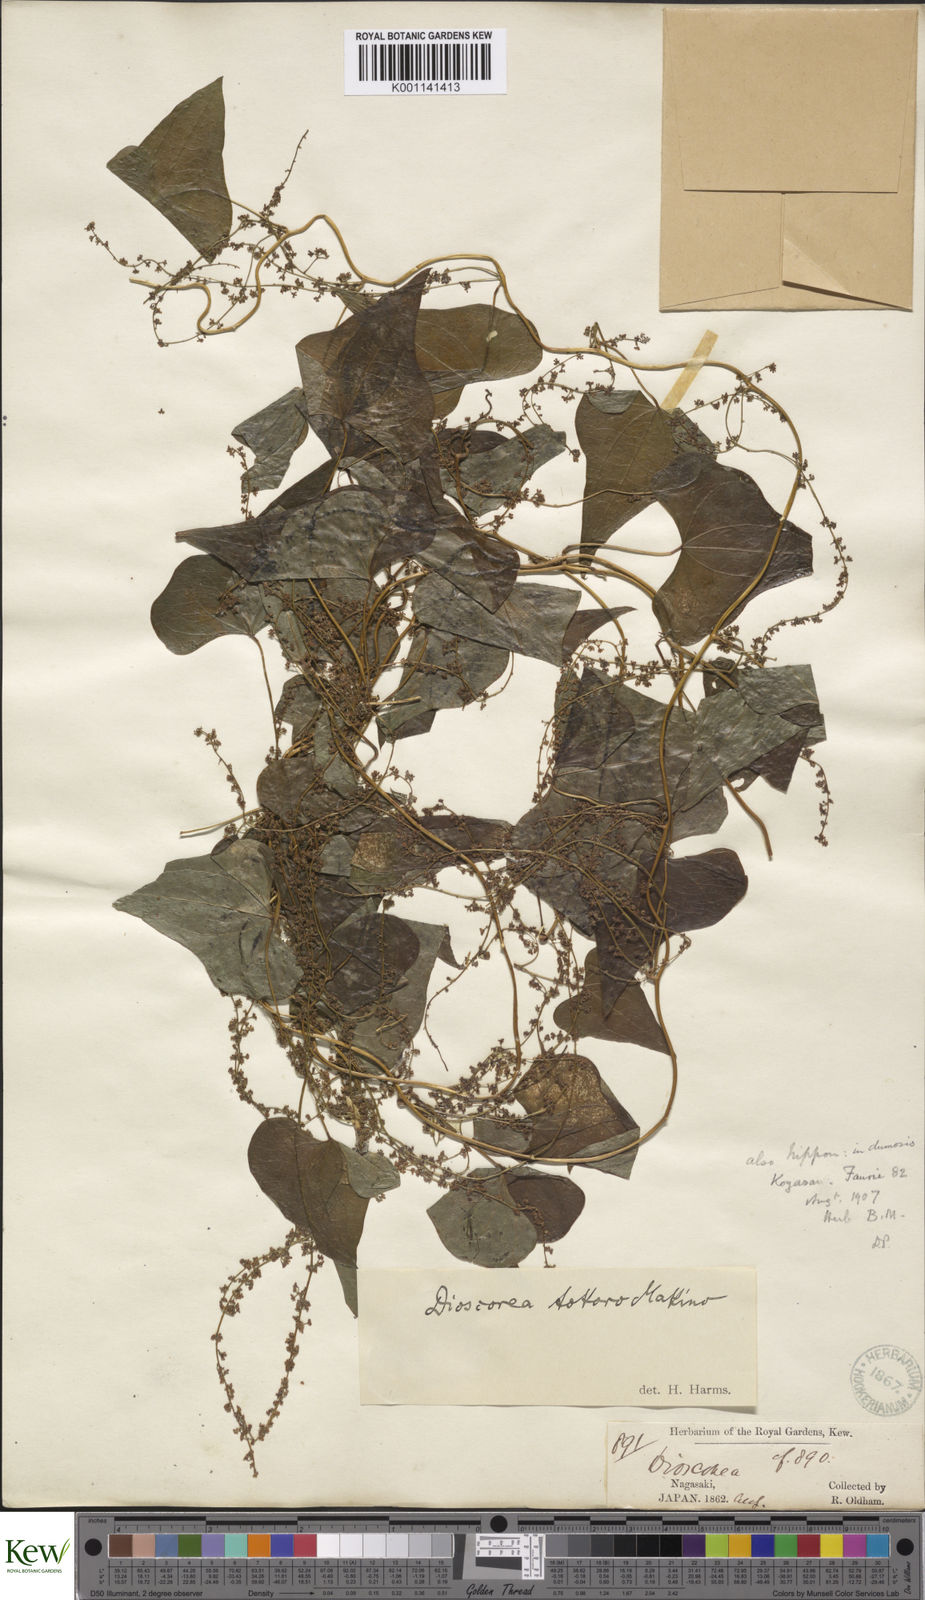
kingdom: Plantae
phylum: Tracheophyta
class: Liliopsida
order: Dioscoreales
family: Dioscoreaceae
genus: Dioscorea
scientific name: Dioscorea tokoro
